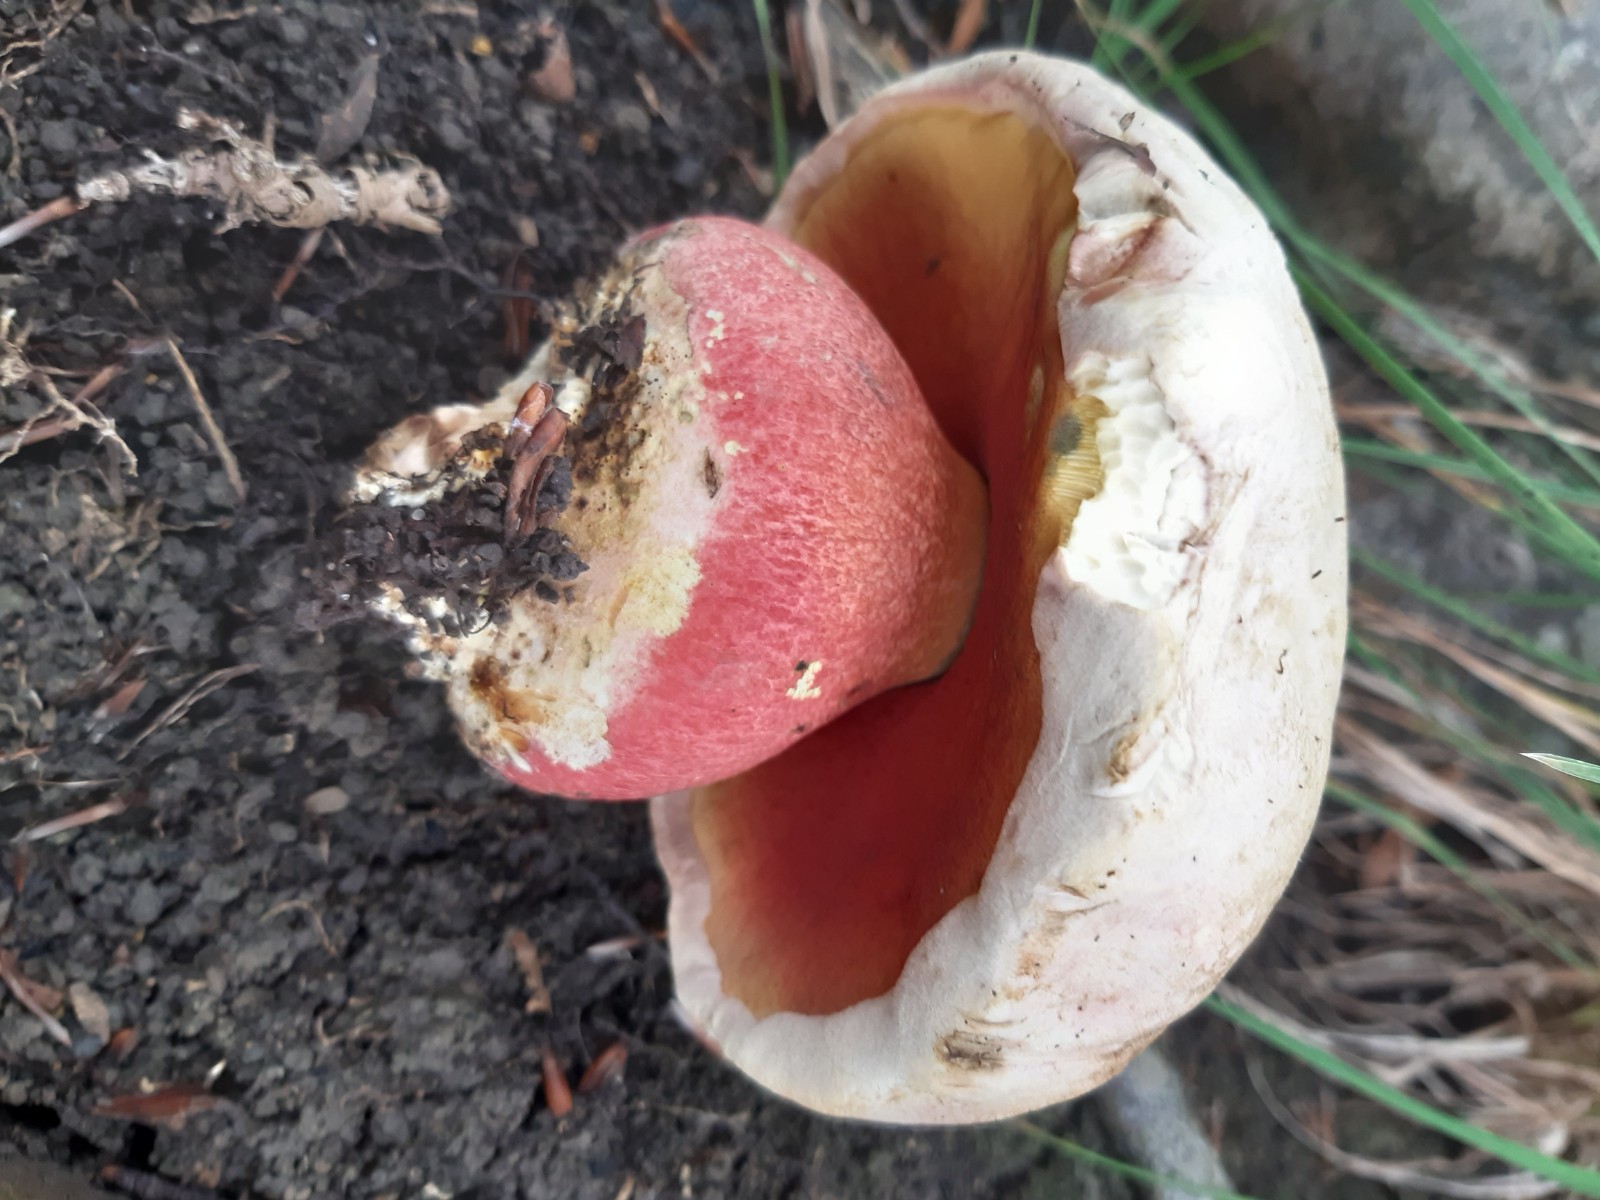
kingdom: Fungi
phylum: Basidiomycota
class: Agaricomycetes
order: Boletales
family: Boletaceae
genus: Rubroboletus
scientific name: Rubroboletus satanas
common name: Satans rørhat
